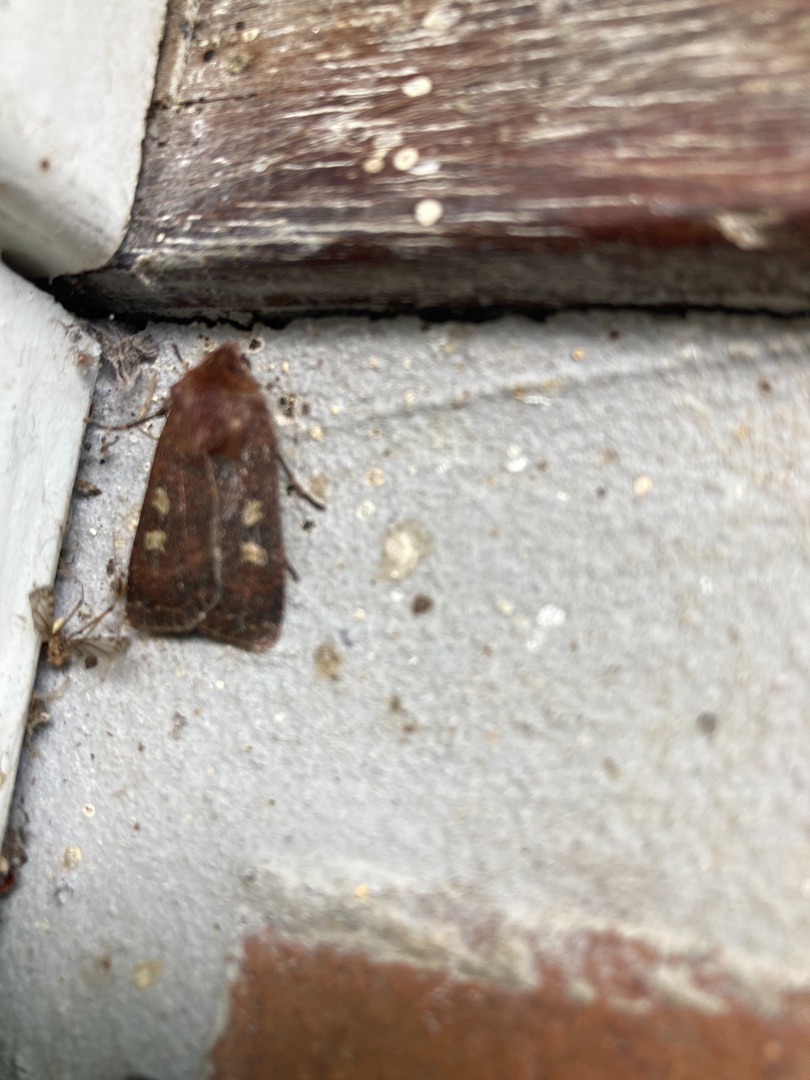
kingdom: Animalia
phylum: Arthropoda
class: Insecta
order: Lepidoptera
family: Noctuidae
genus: Xestia
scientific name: Xestia xanthographa
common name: Gulmærket glansugle
